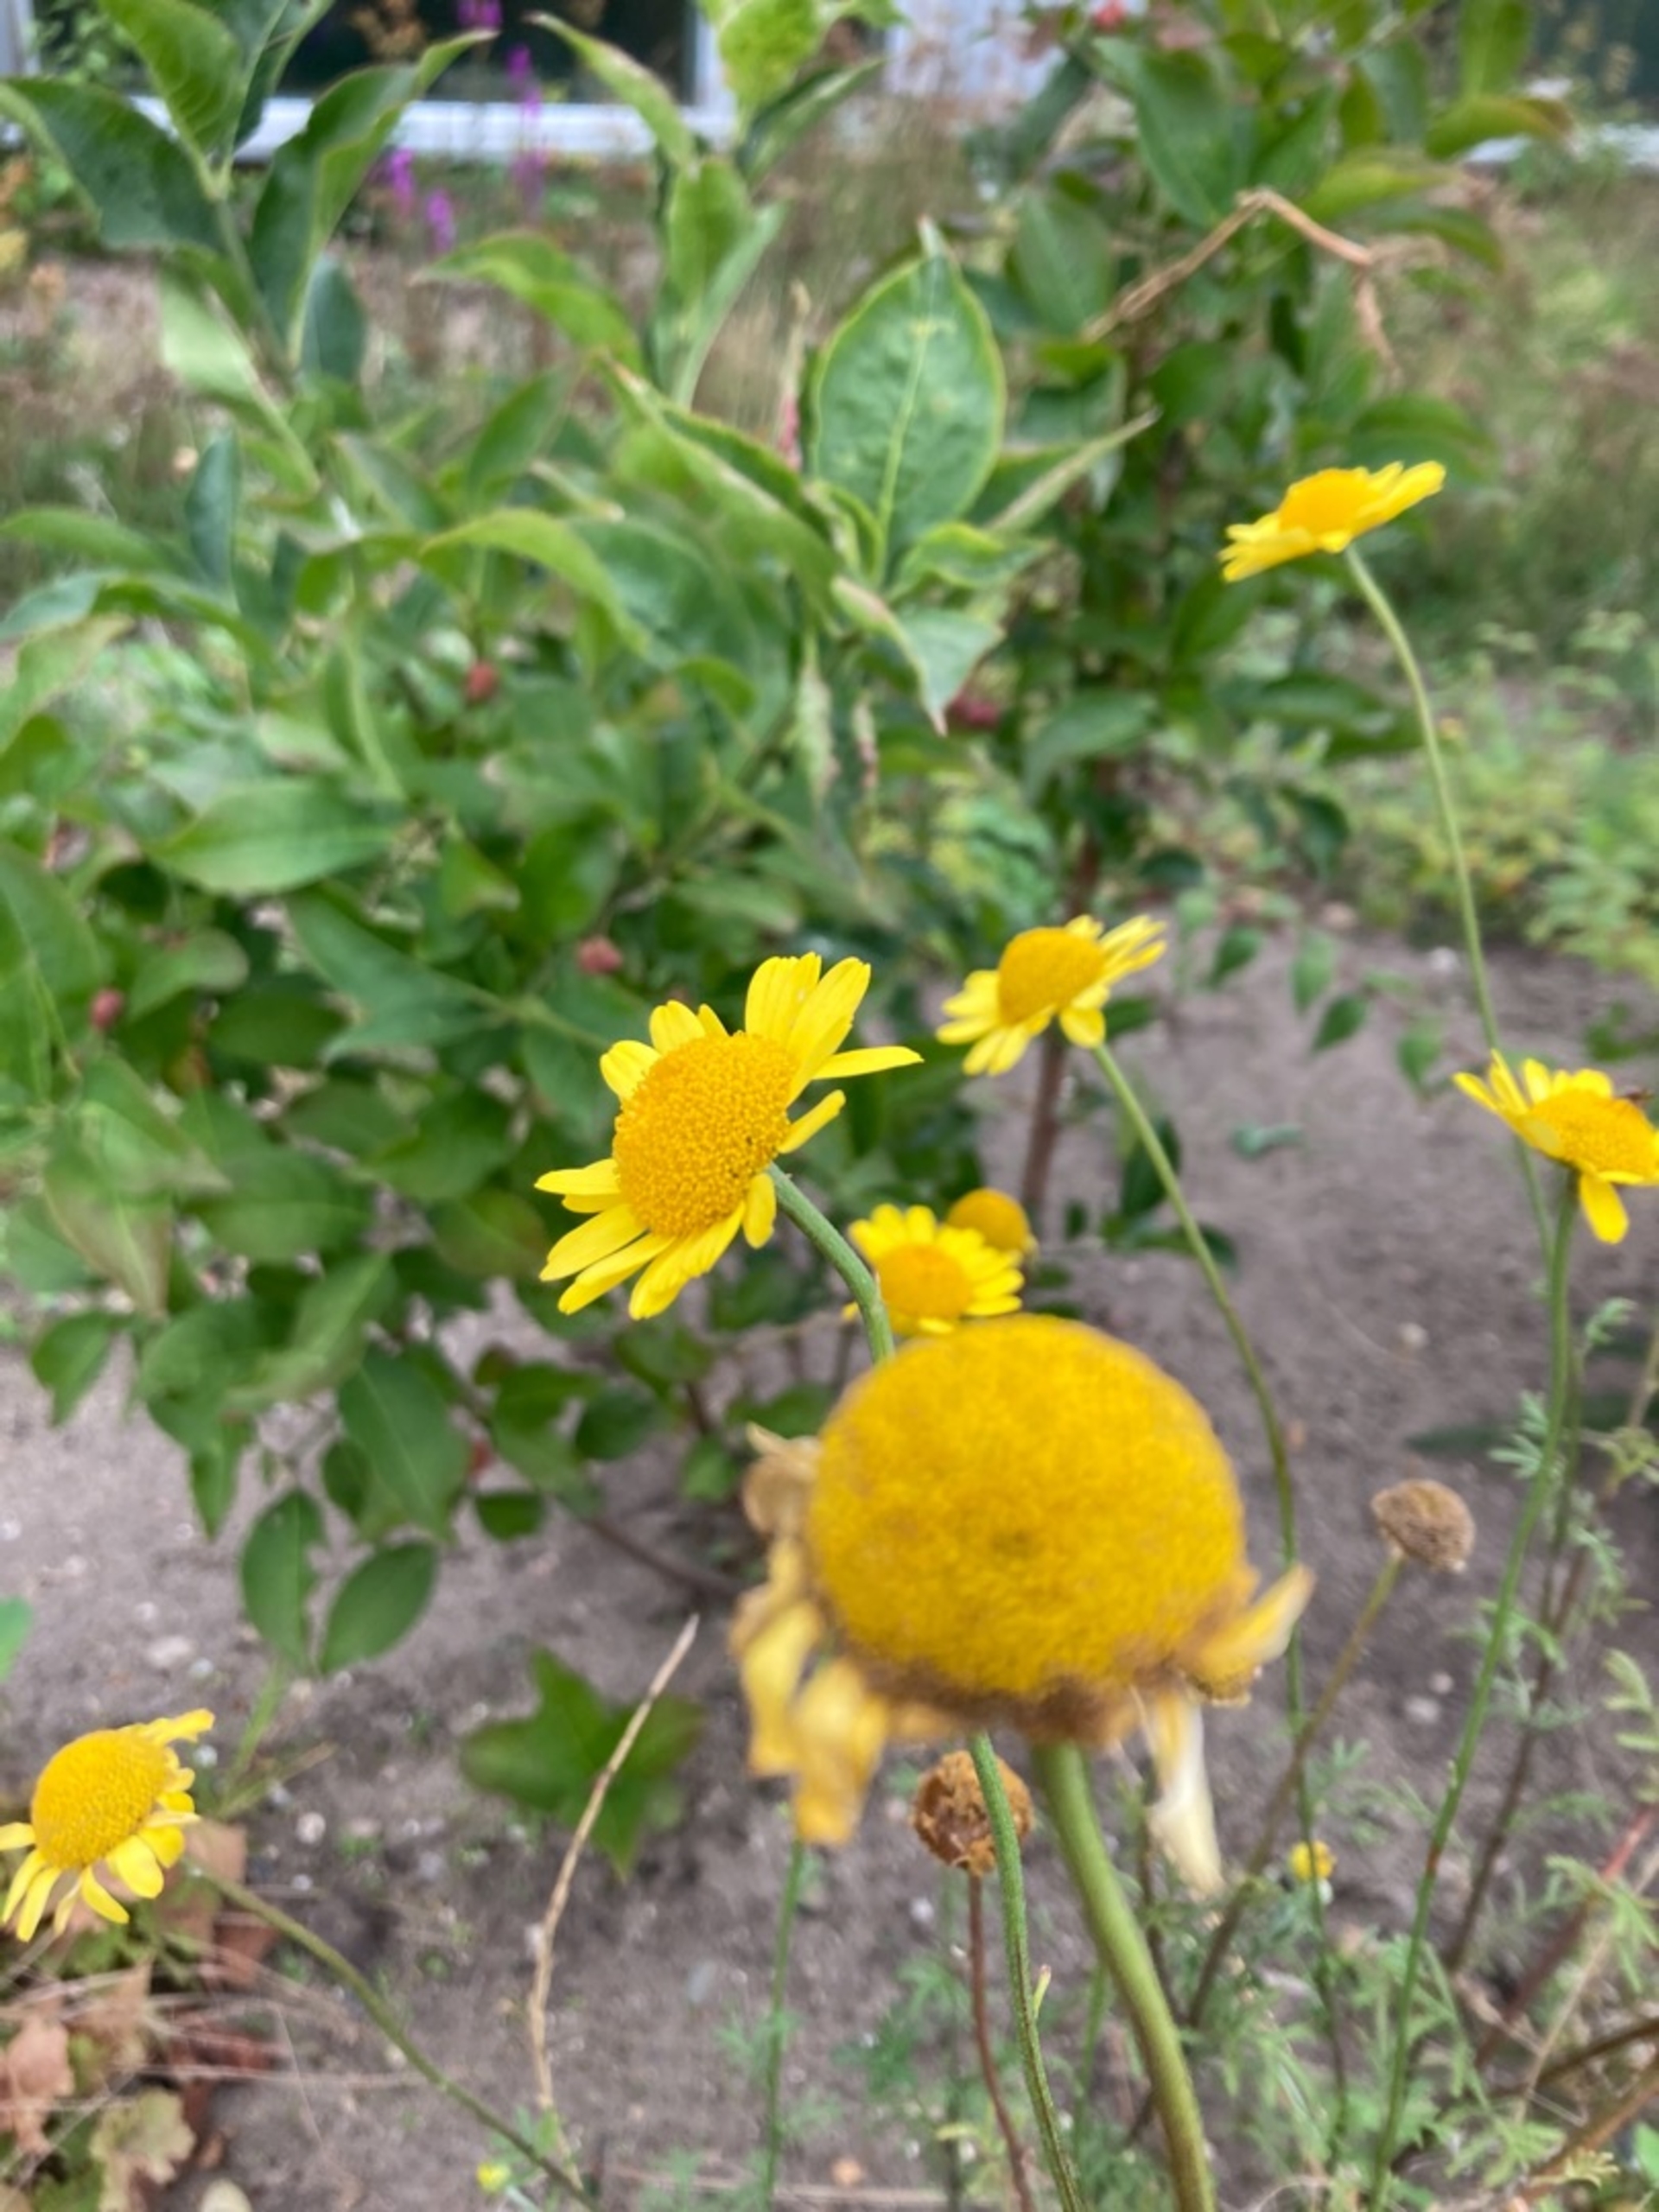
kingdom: Plantae
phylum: Tracheophyta
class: Magnoliopsida
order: Asterales
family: Asteraceae
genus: Cota
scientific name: Cota tinctoria
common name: Farve-gåseurt
